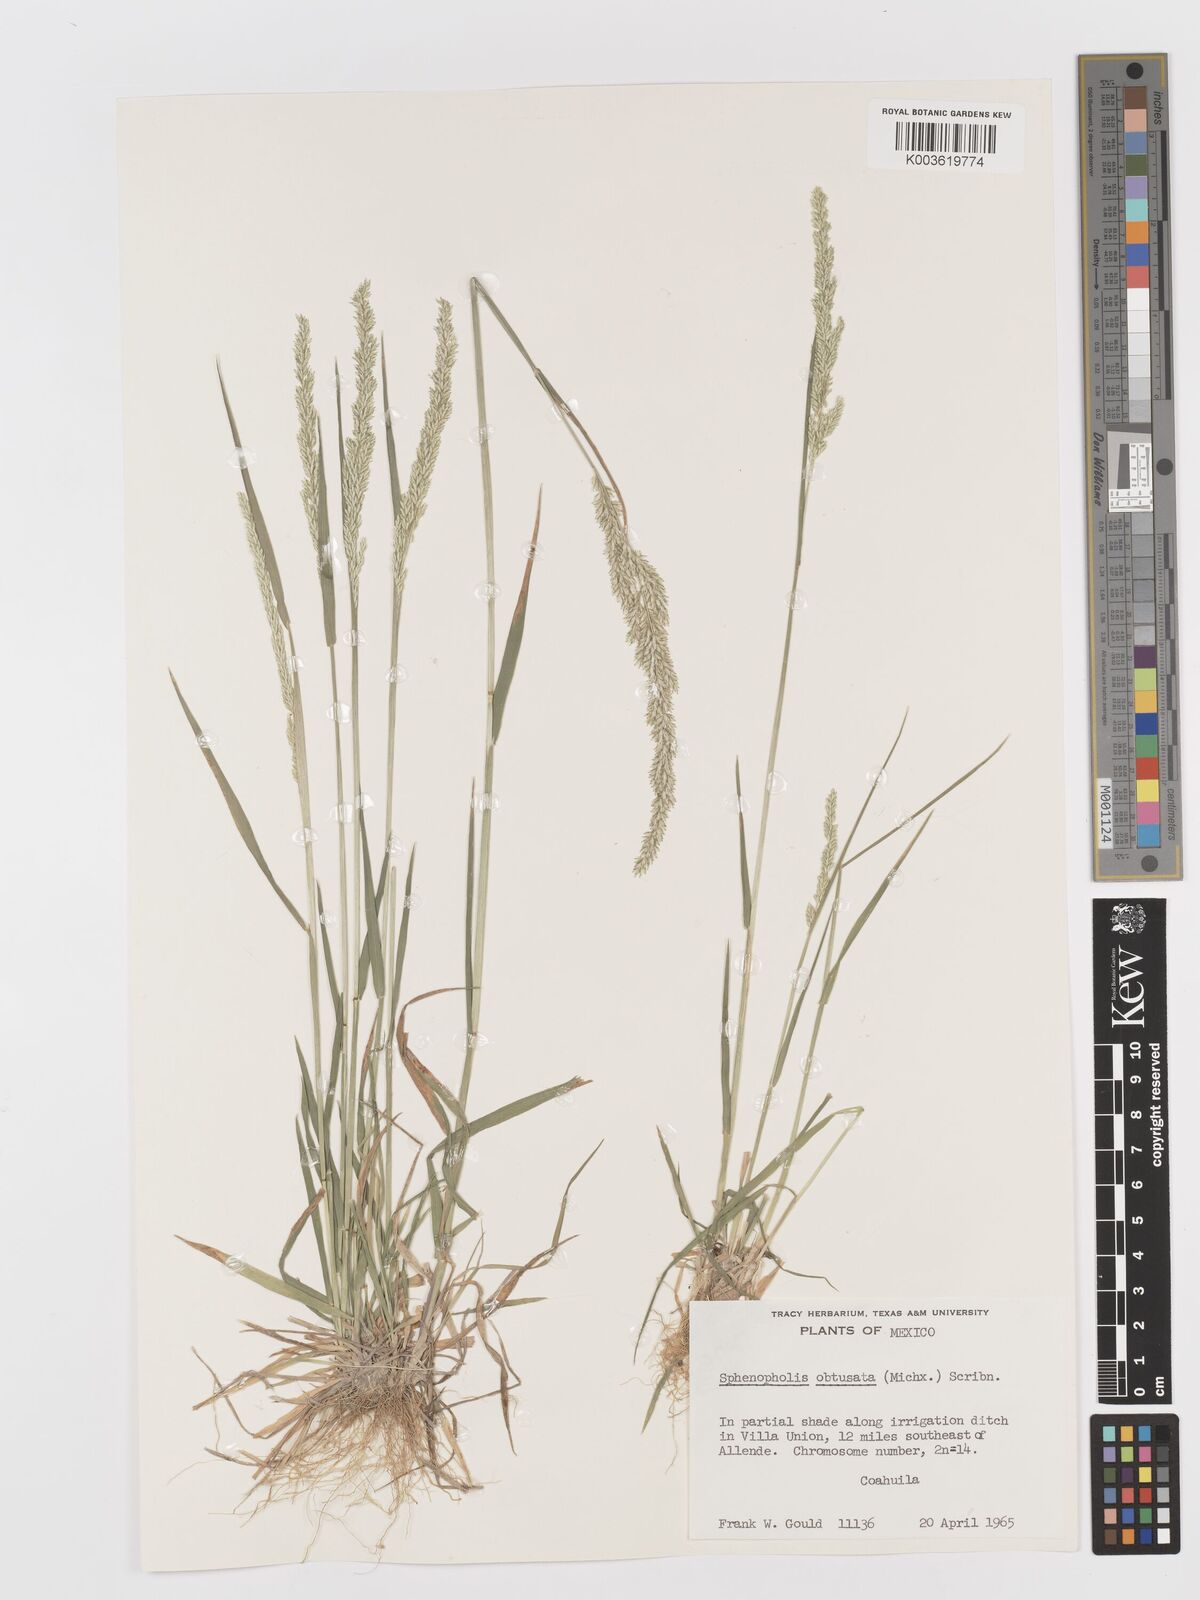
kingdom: Plantae
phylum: Tracheophyta
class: Liliopsida
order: Poales
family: Poaceae
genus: Sphenopholis
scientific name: Sphenopholis obtusata
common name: Prairie grass
